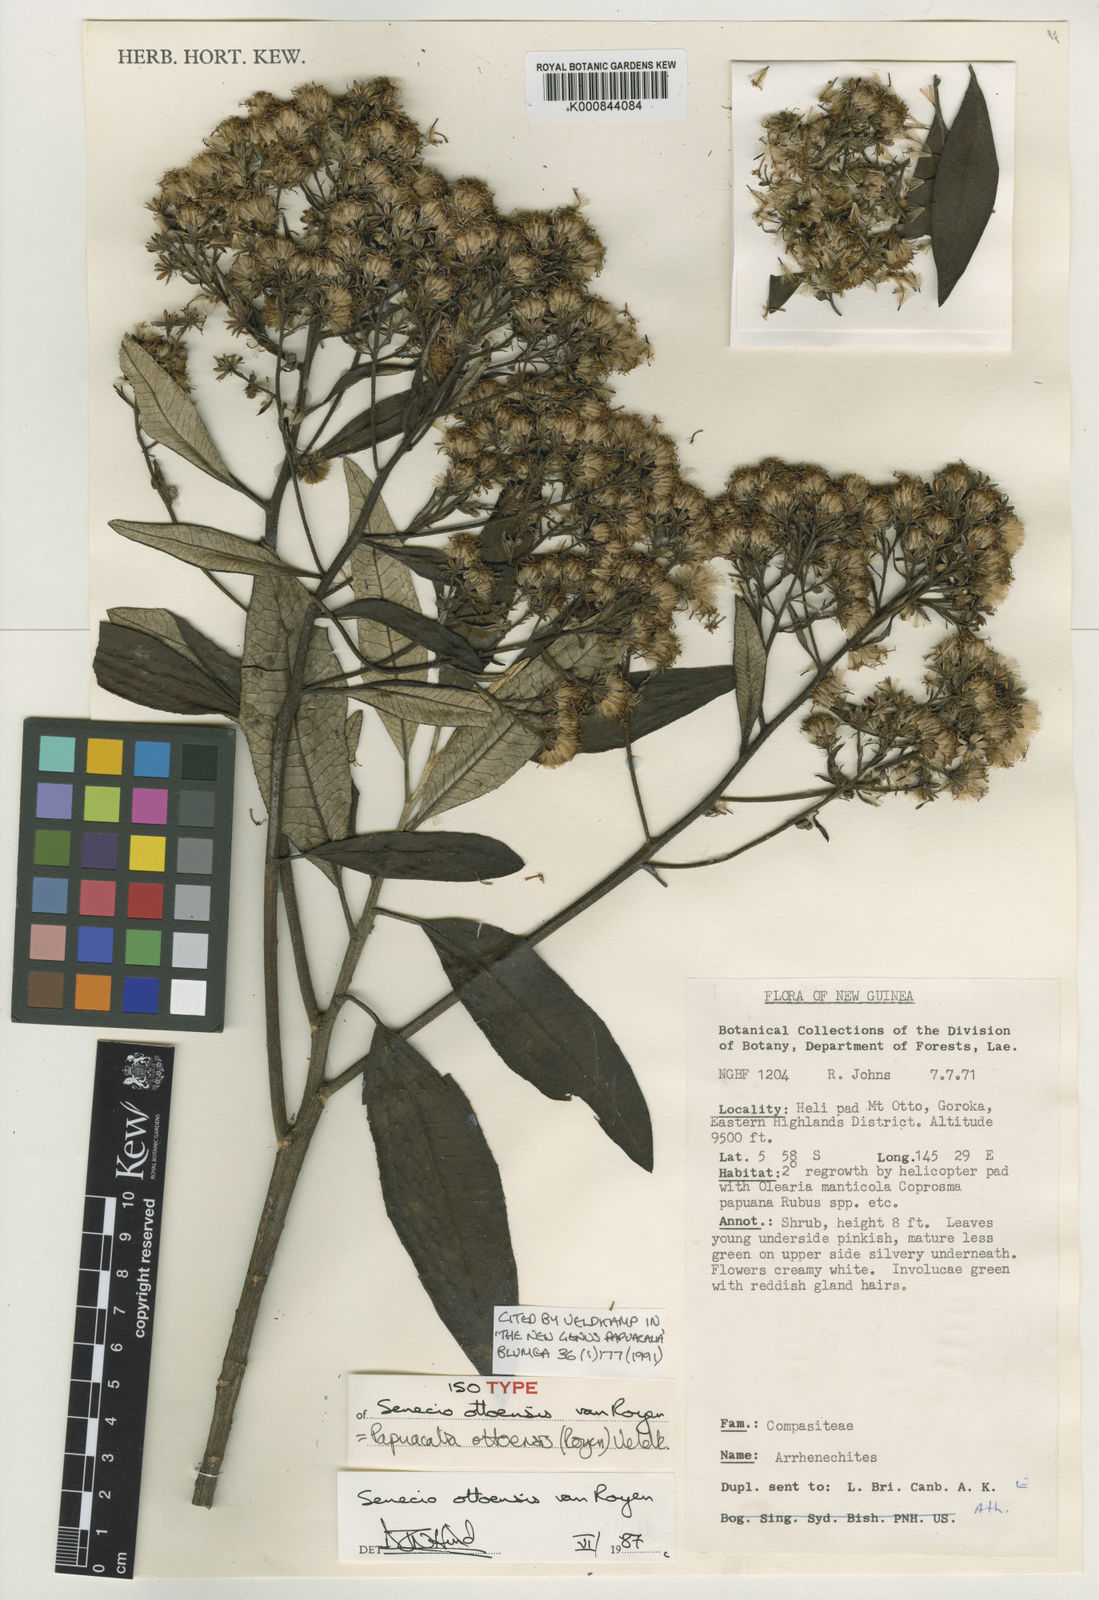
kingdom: Plantae
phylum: Tracheophyta
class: Magnoliopsida
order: Asterales
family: Asteraceae
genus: Papuacalia
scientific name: Papuacalia ottoensis
